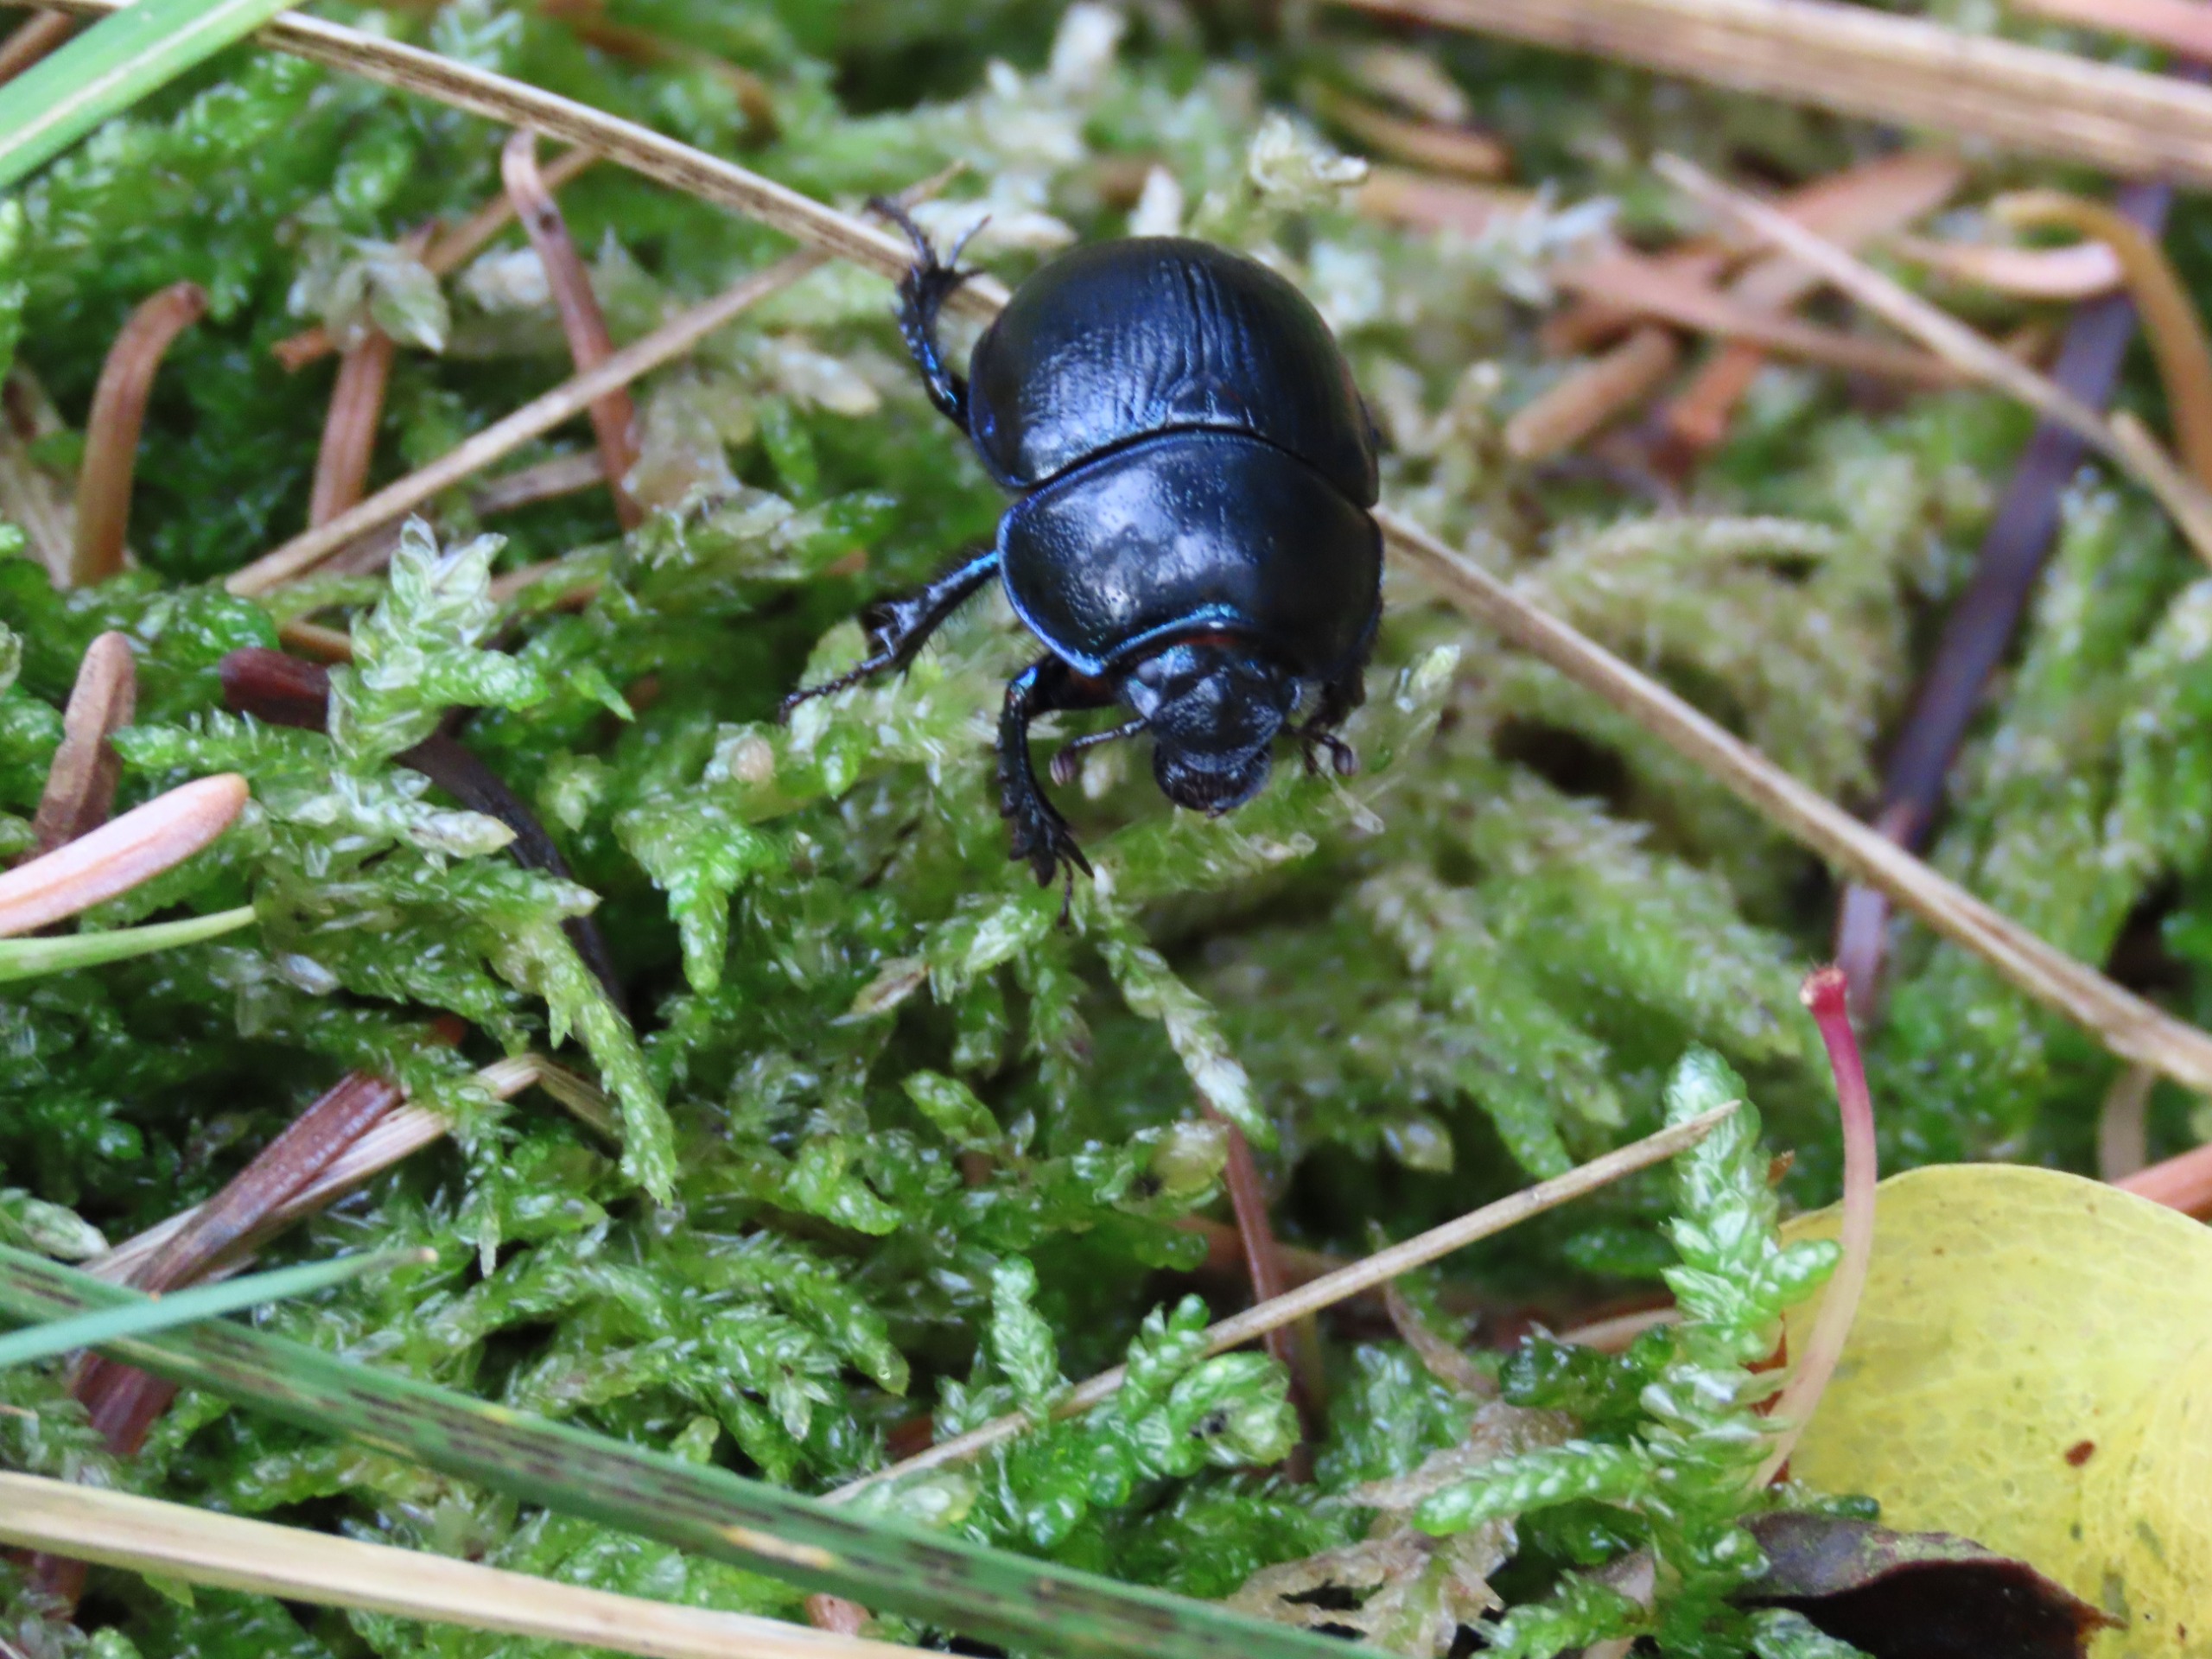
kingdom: Animalia
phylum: Arthropoda
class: Insecta
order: Coleoptera
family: Geotrupidae
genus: Anoplotrupes
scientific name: Anoplotrupes stercorosus
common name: Skovskarnbasse
